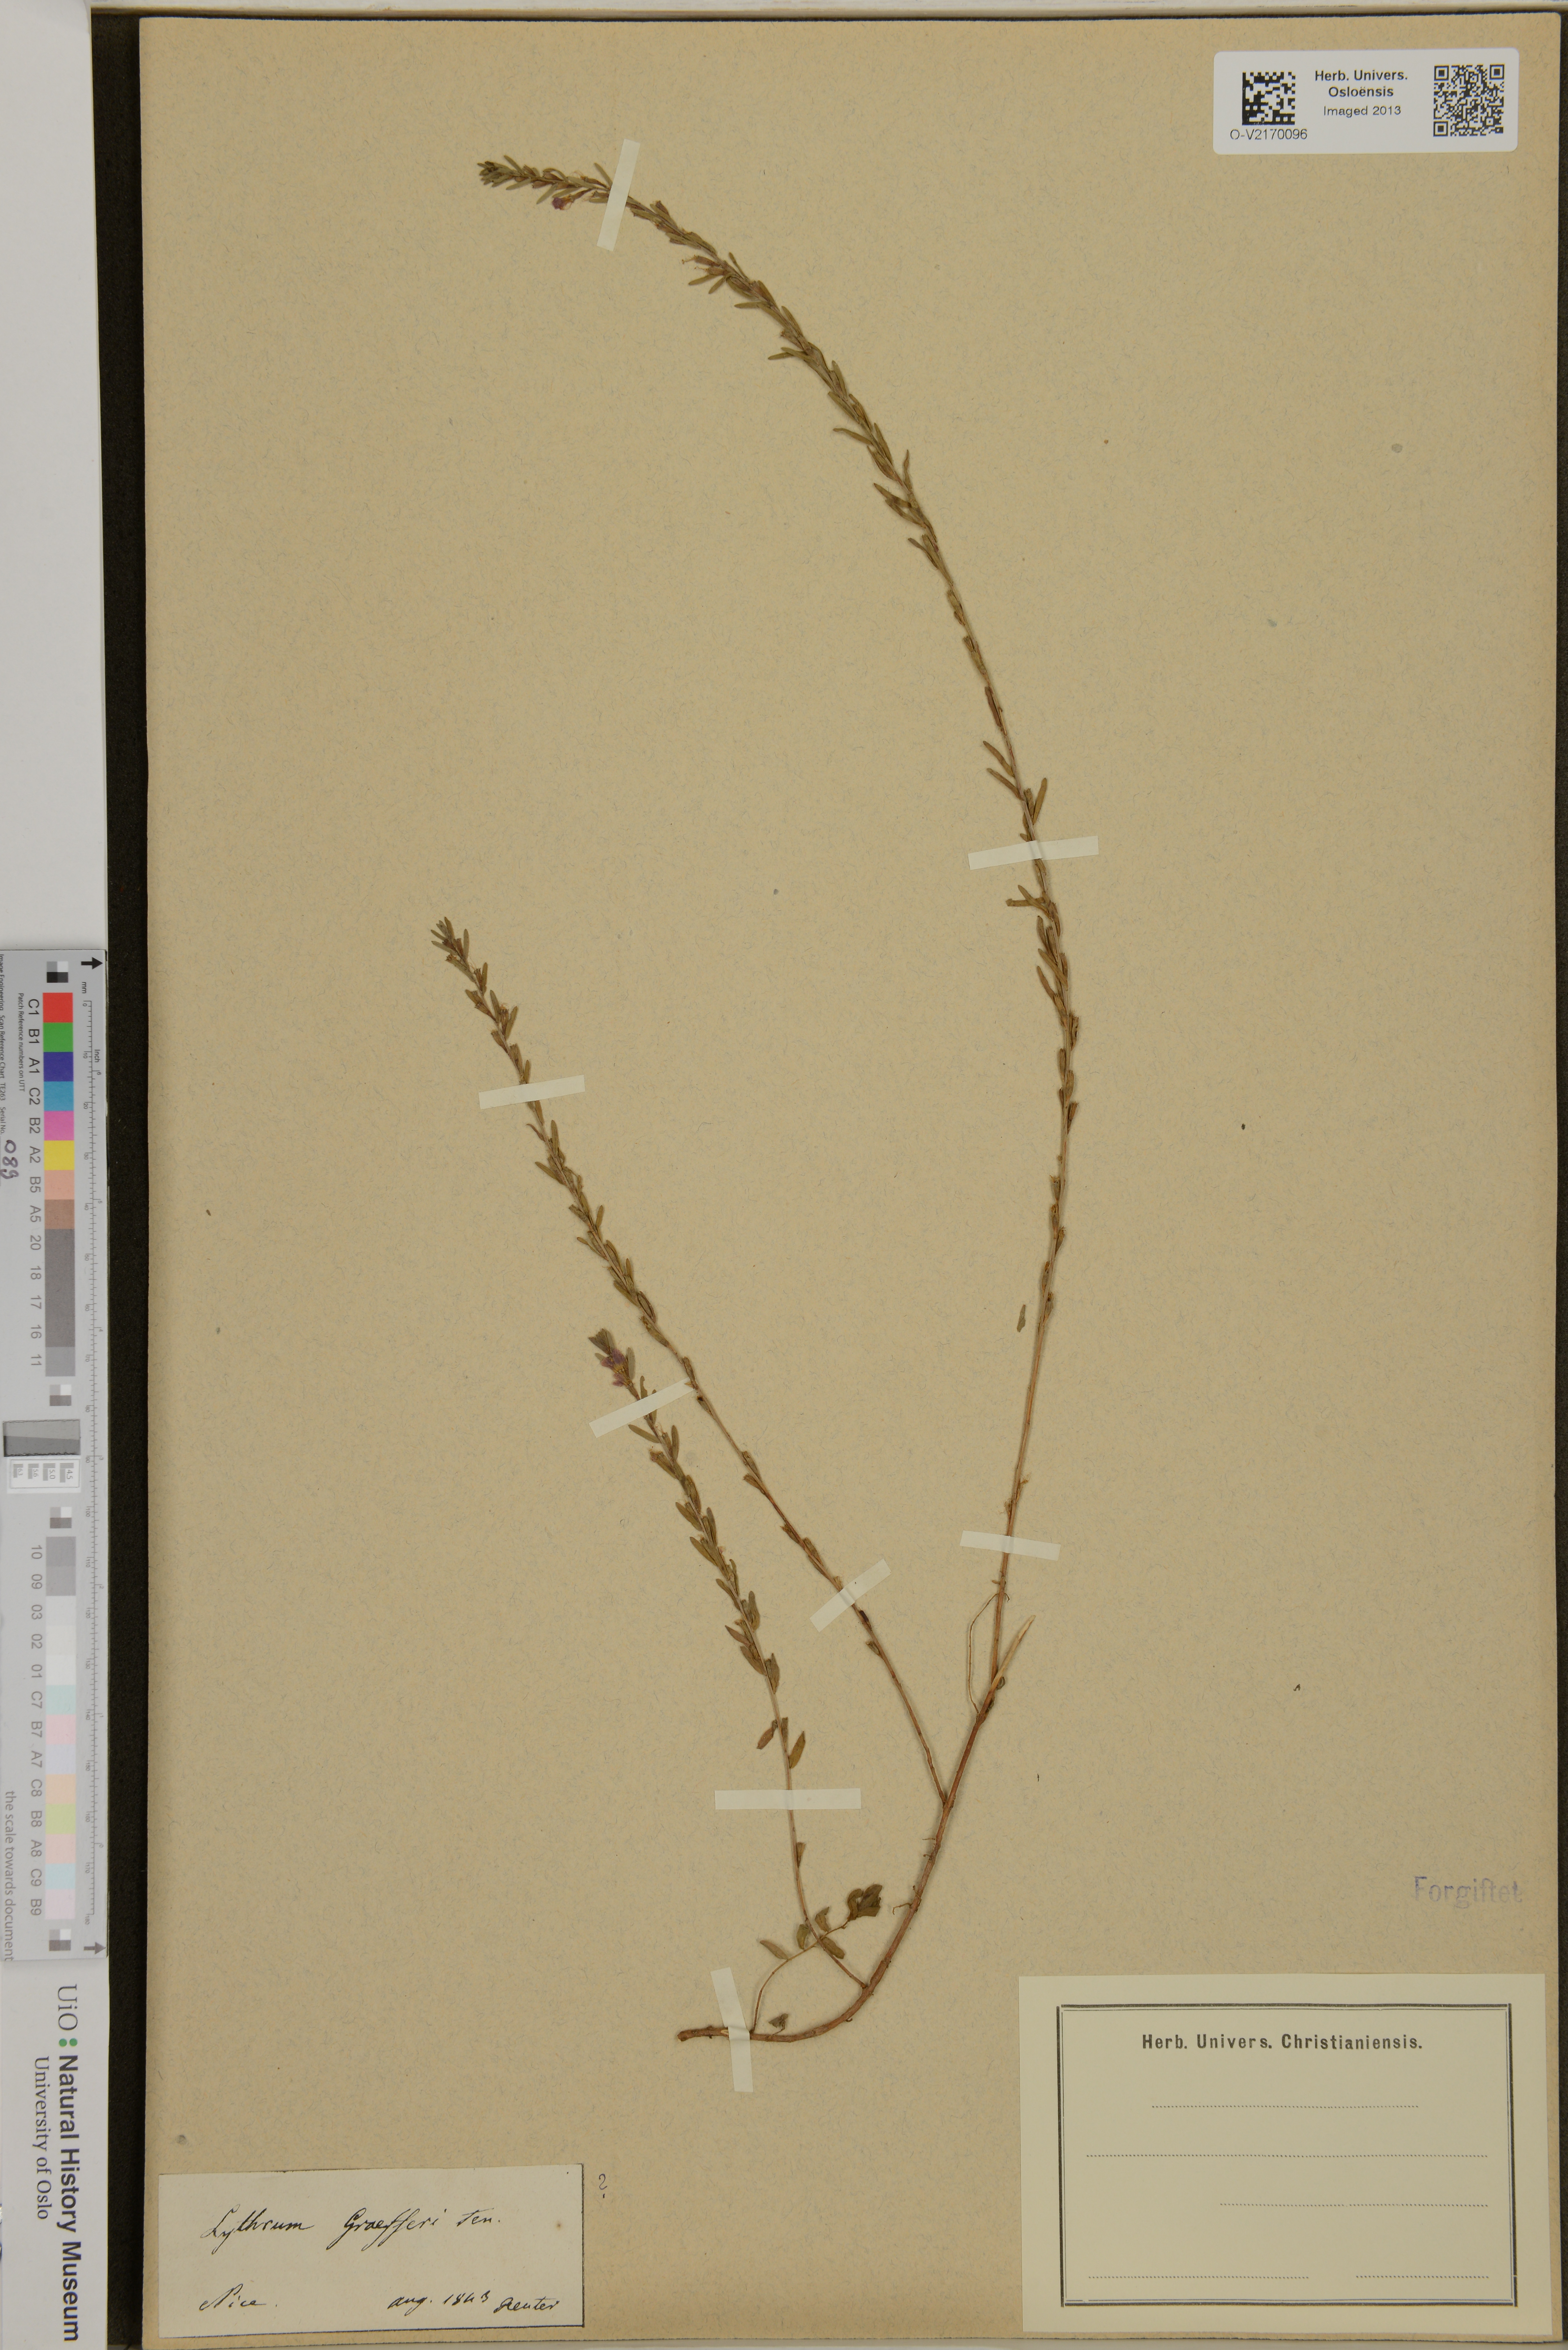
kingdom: Plantae
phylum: Tracheophyta
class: Magnoliopsida
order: Myrtales
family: Lythraceae
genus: Lythrum
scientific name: Lythrum graefferi
